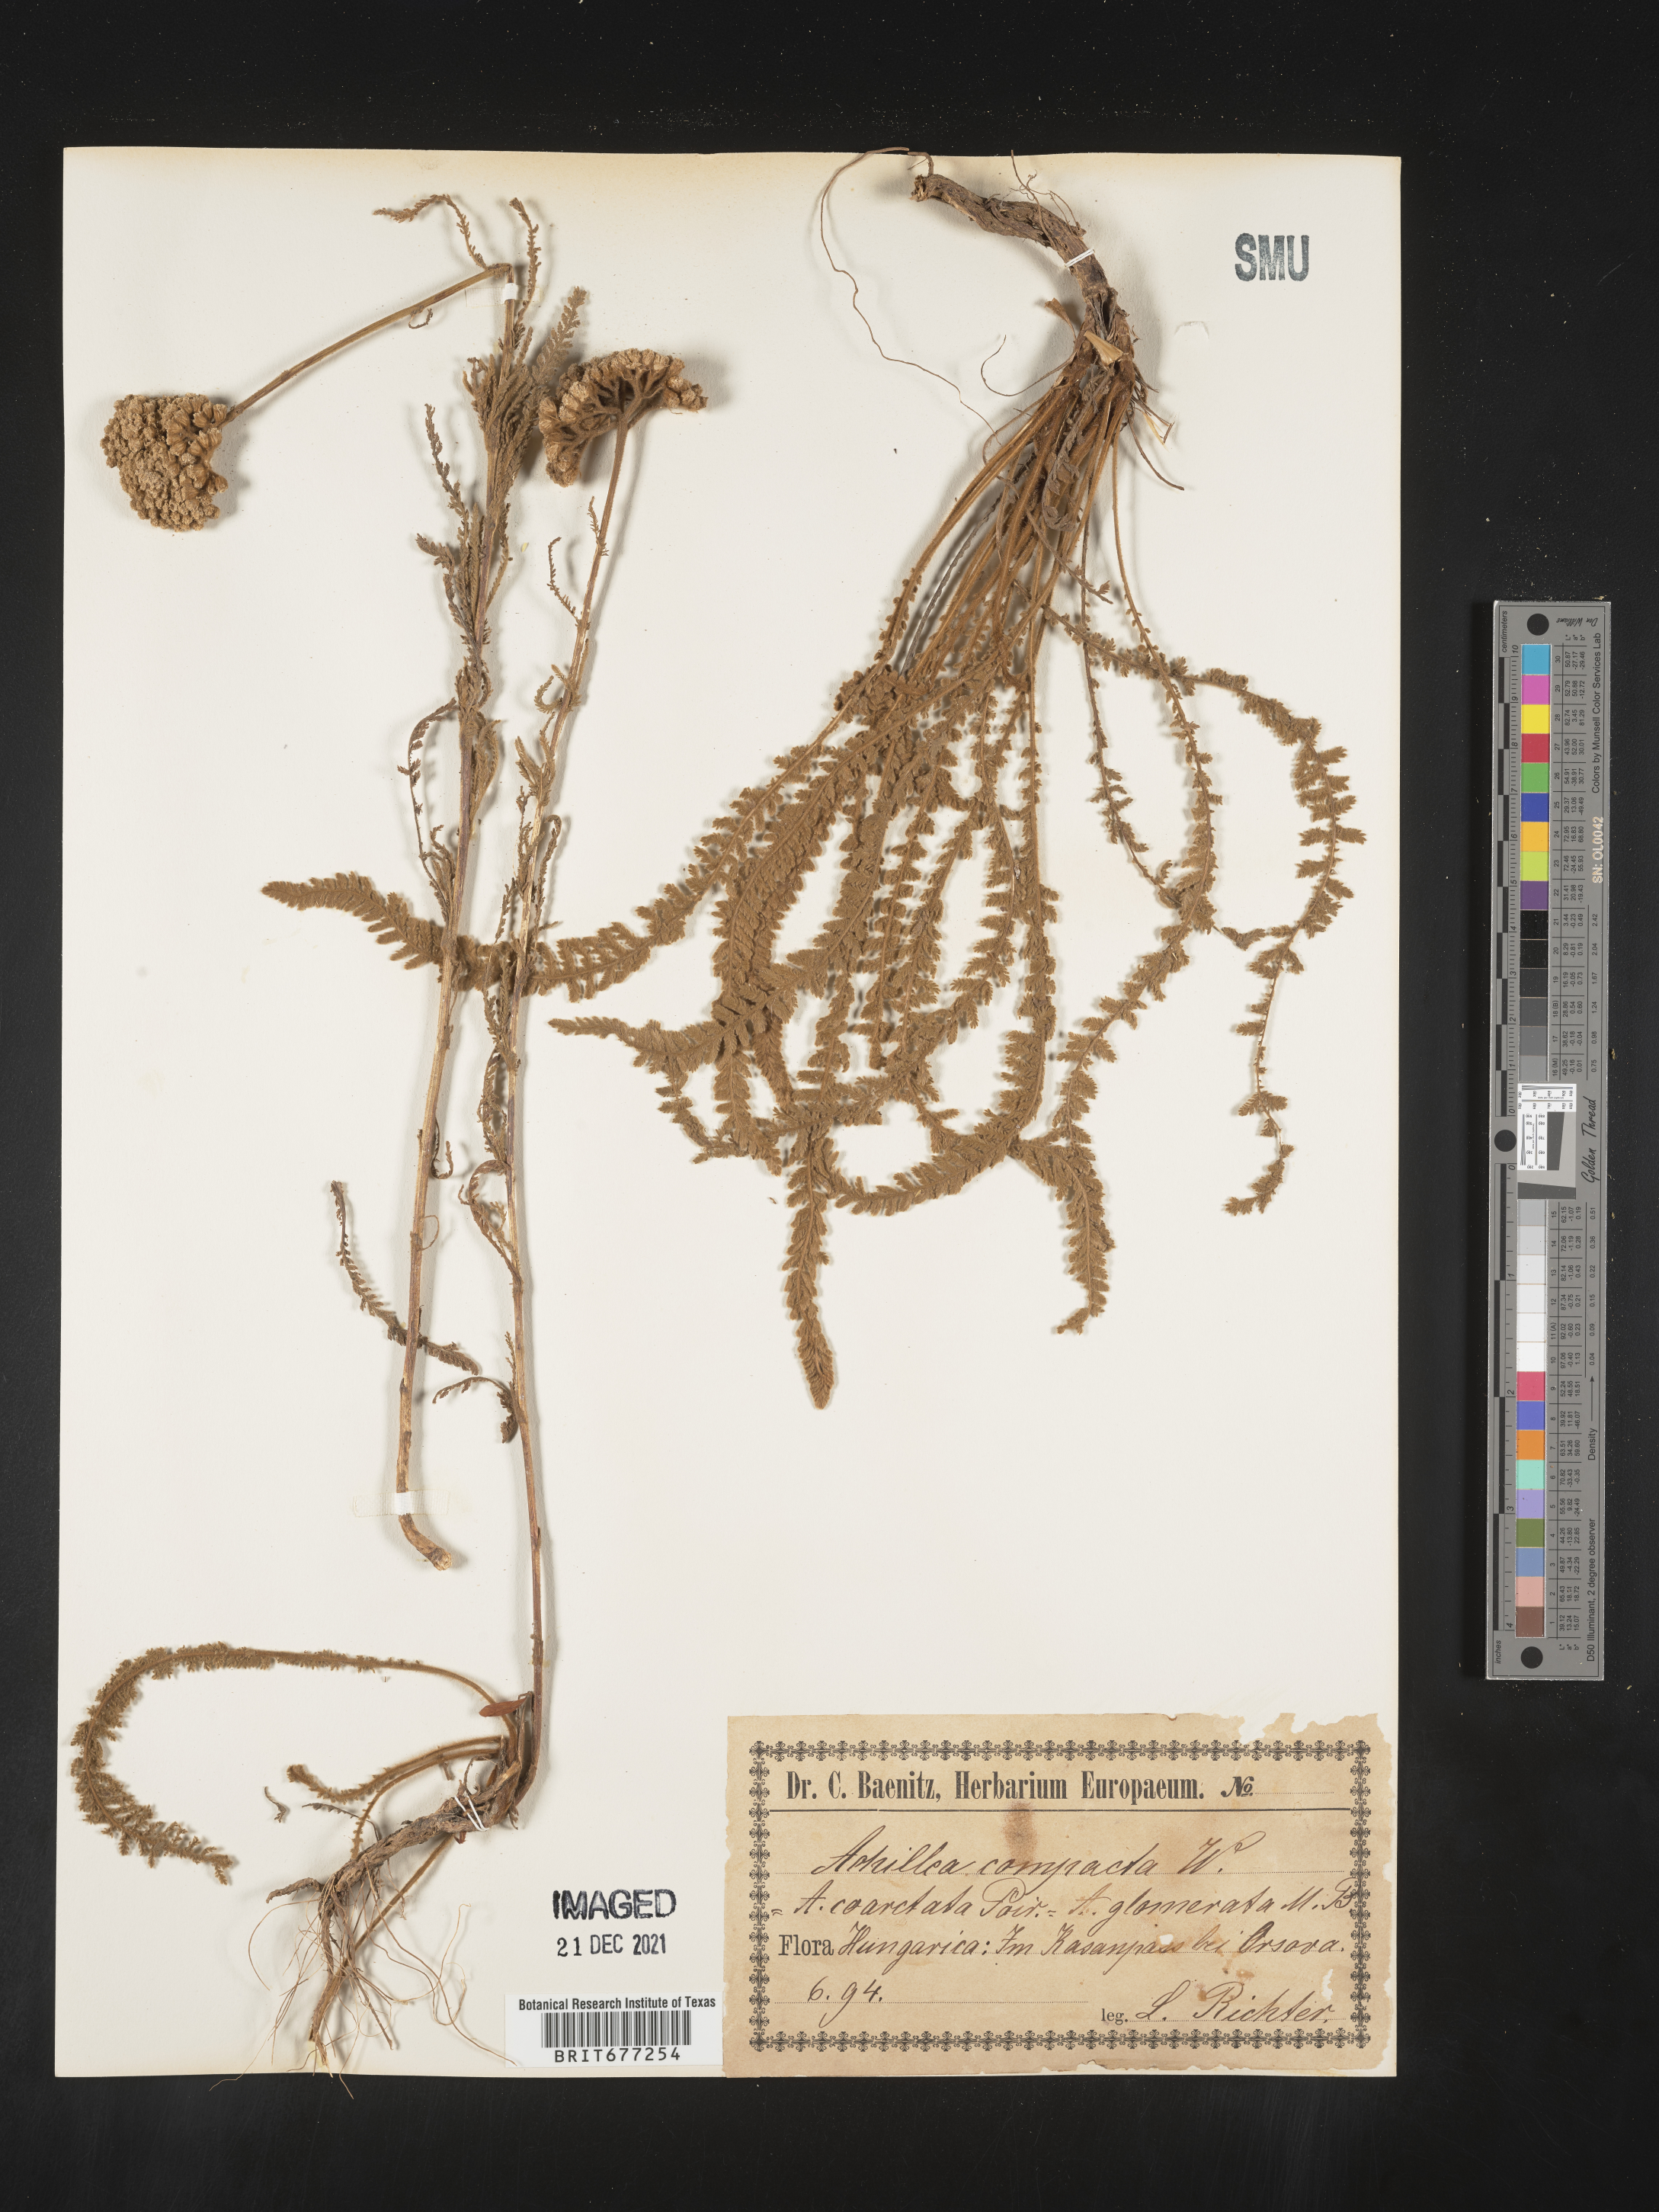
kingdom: Plantae
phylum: Tracheophyta
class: Magnoliopsida
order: Asterales
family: Asteraceae
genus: Achillea
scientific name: Achillea
